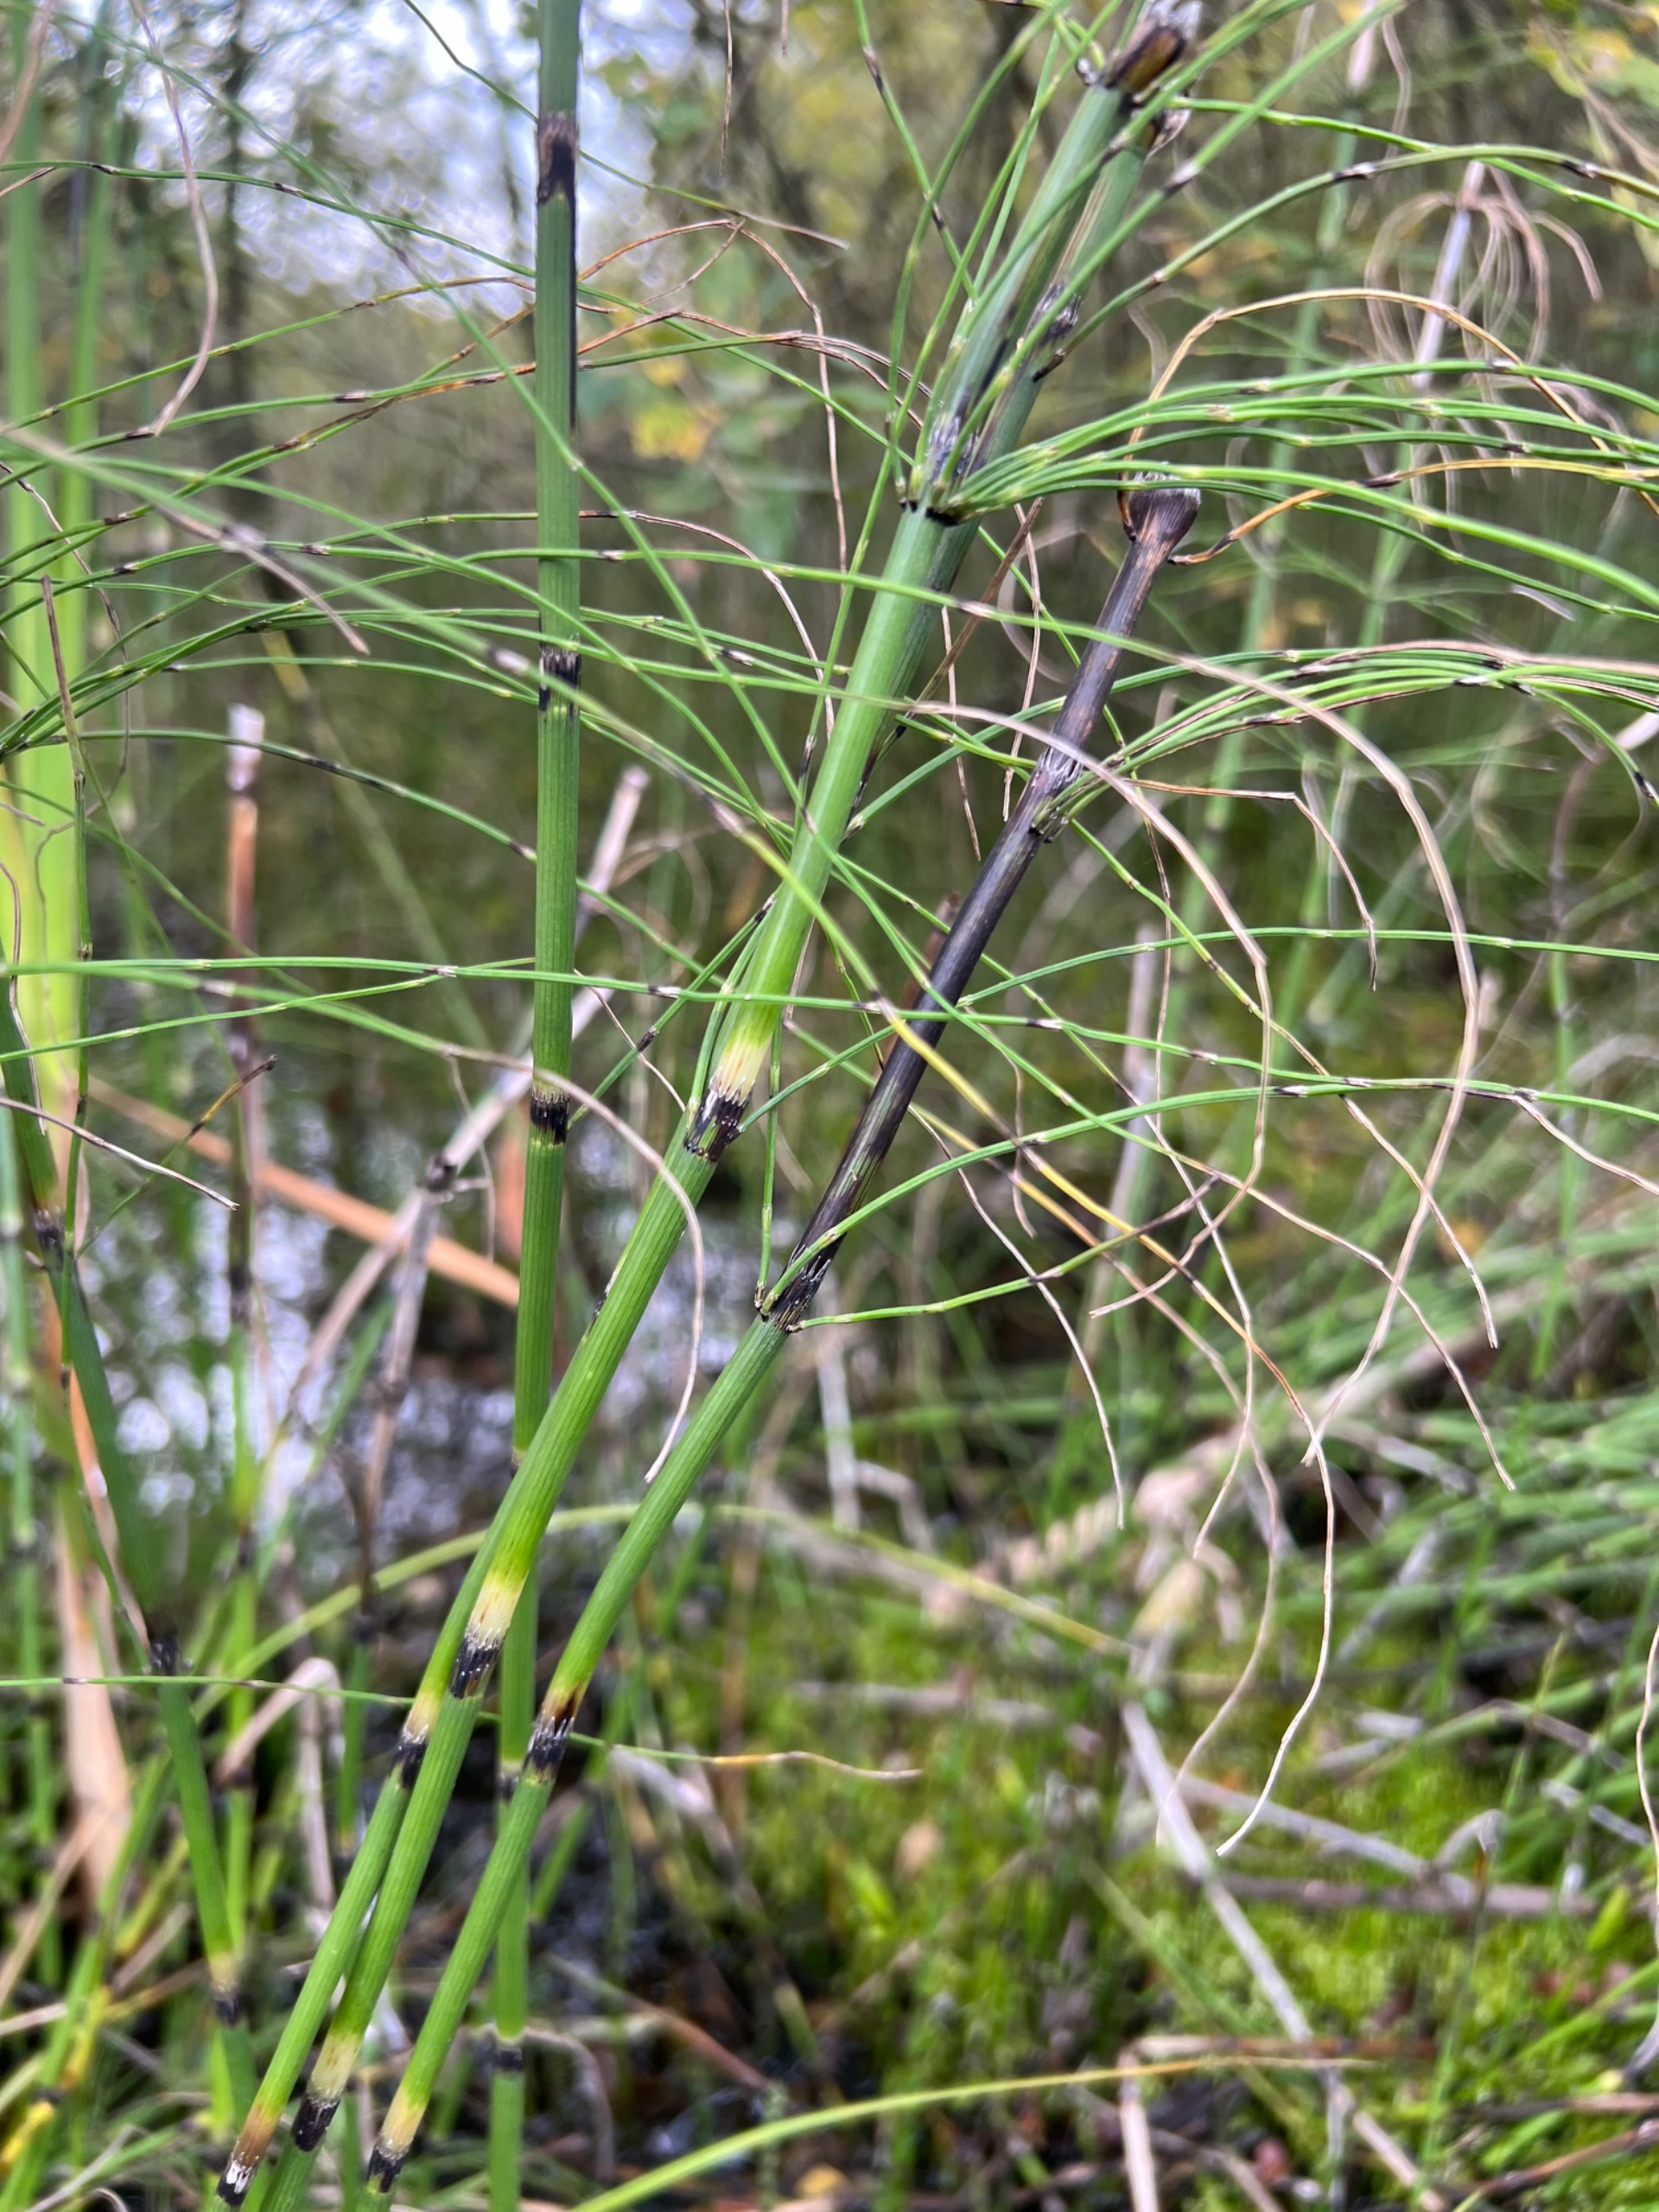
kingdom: Plantae
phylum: Tracheophyta
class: Polypodiopsida
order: Equisetales
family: Equisetaceae
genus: Equisetum
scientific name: Equisetum fluviatile
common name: Dynd-padderok
